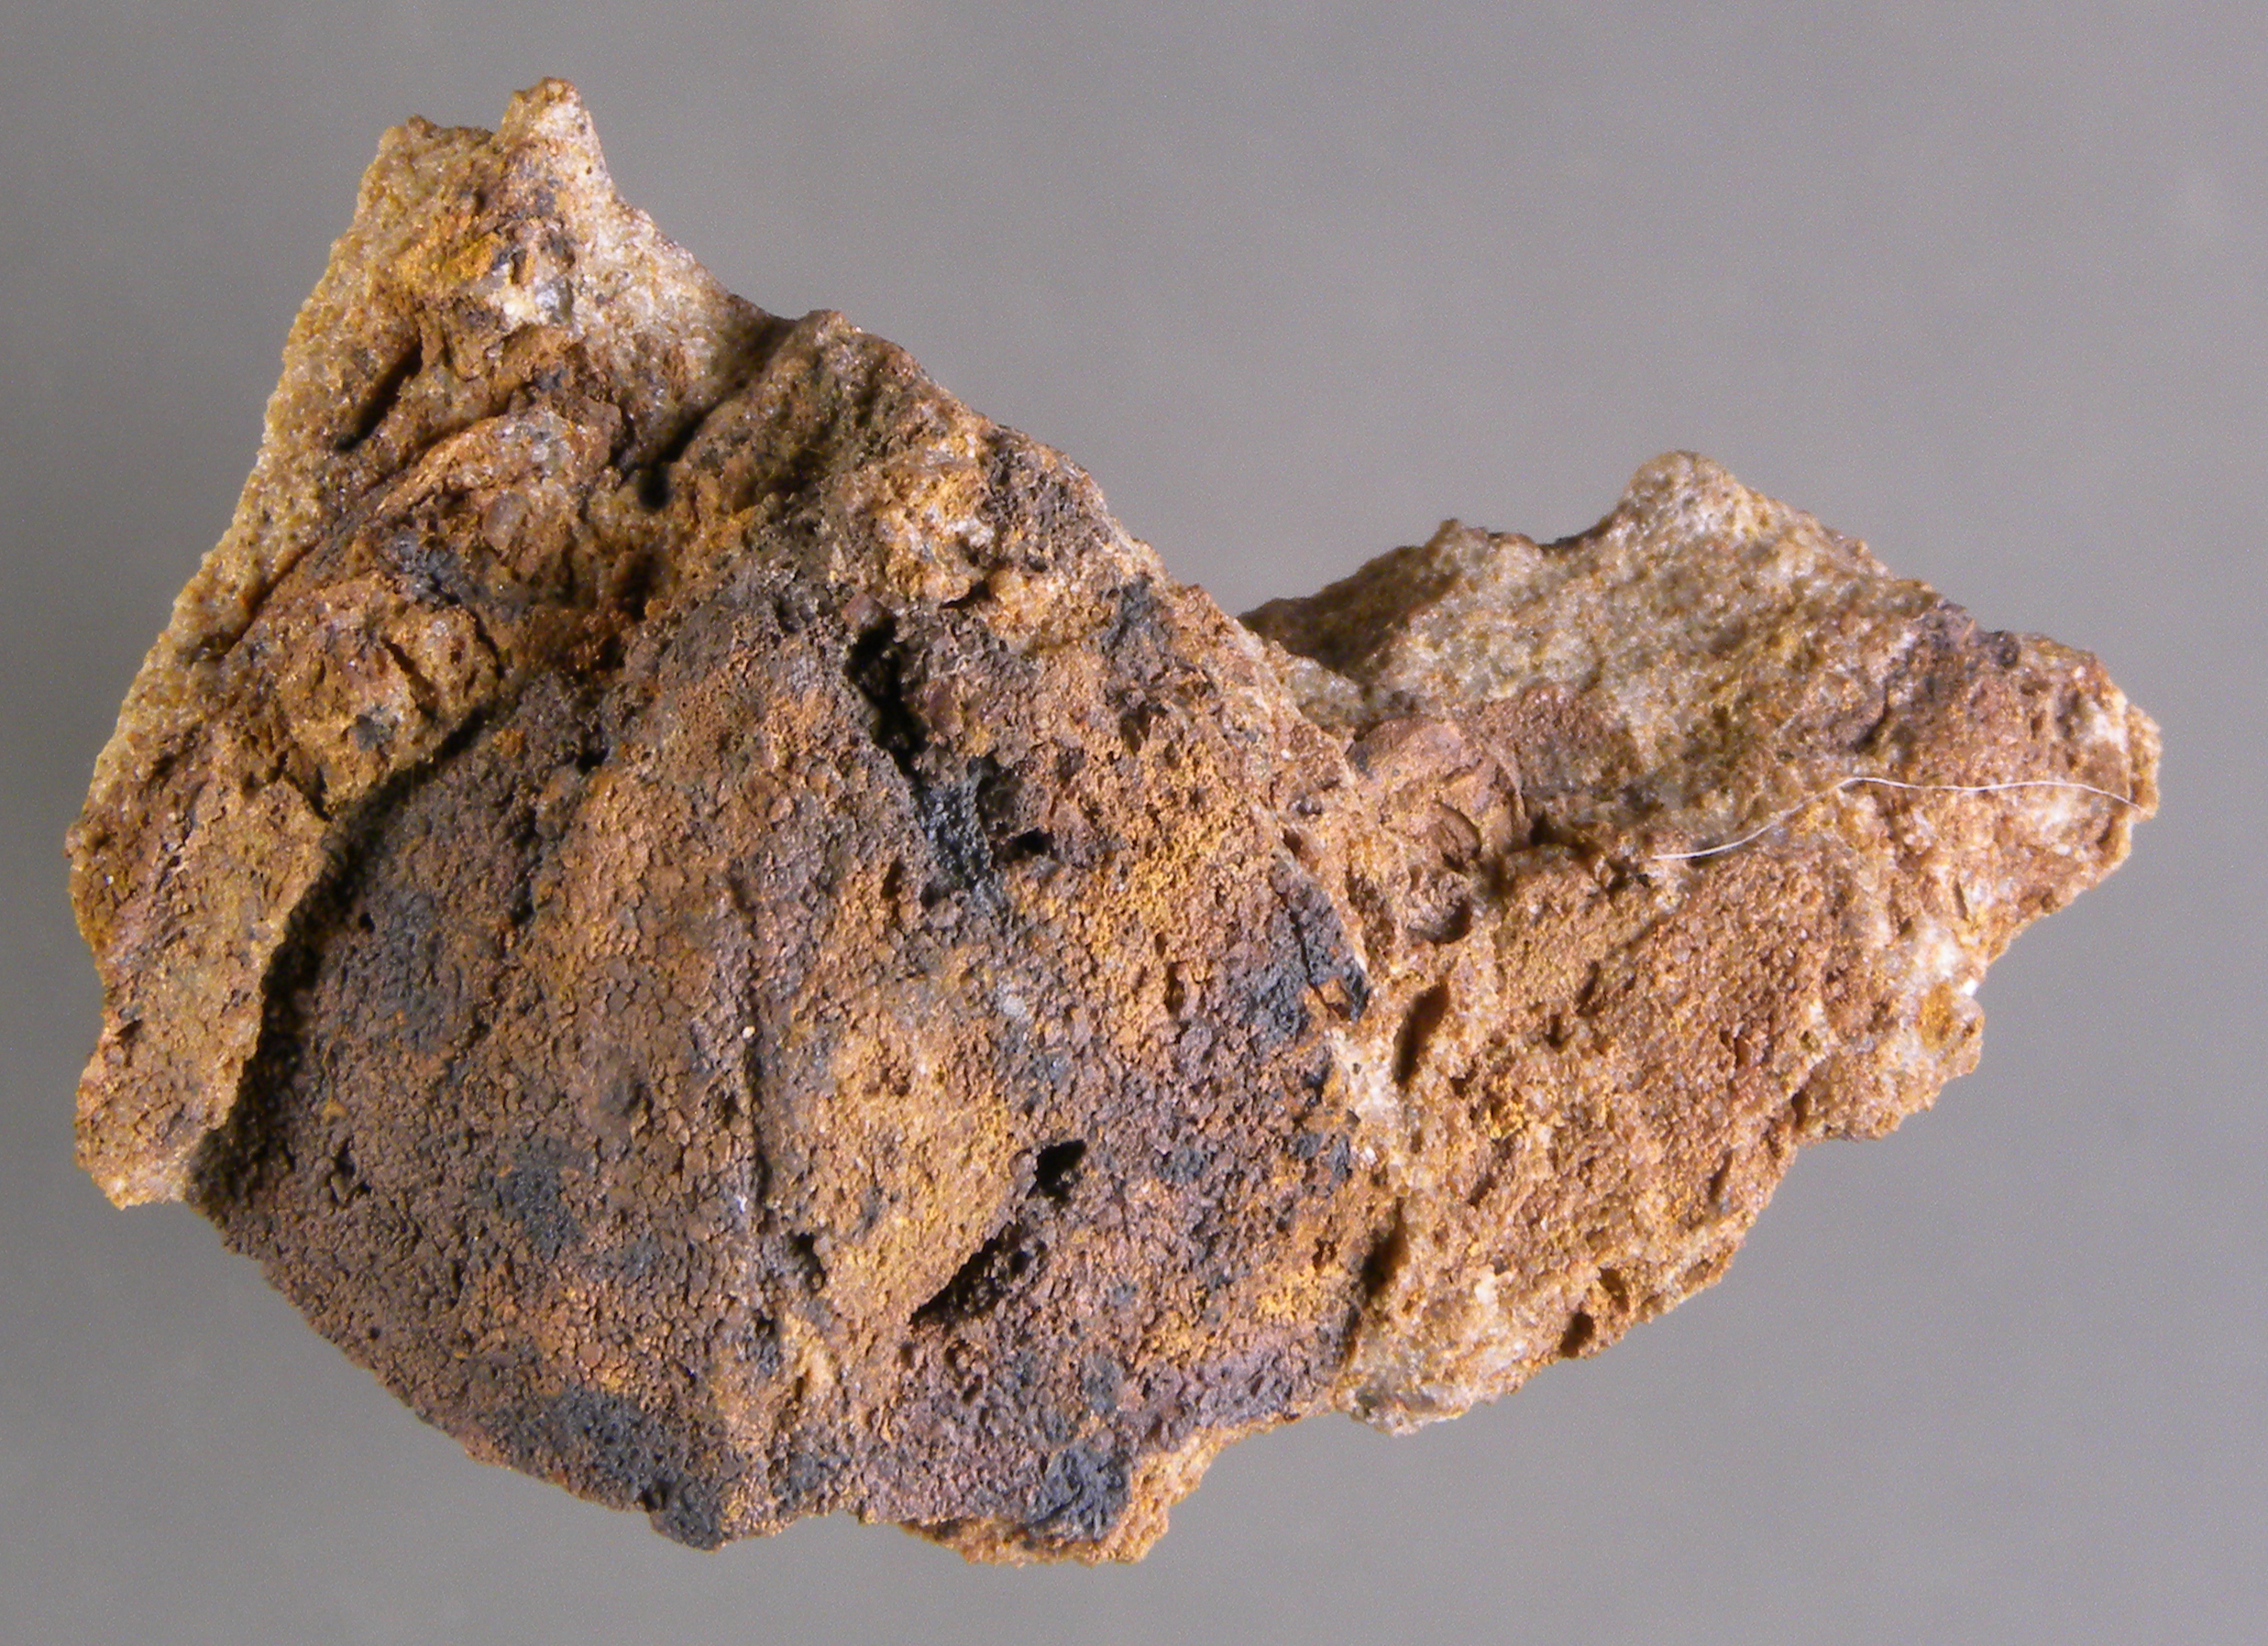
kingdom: Animalia
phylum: Brachiopoda
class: Rhynchonellata
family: Rhipidomellidae
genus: Platyorthis
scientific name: Platyorthis
